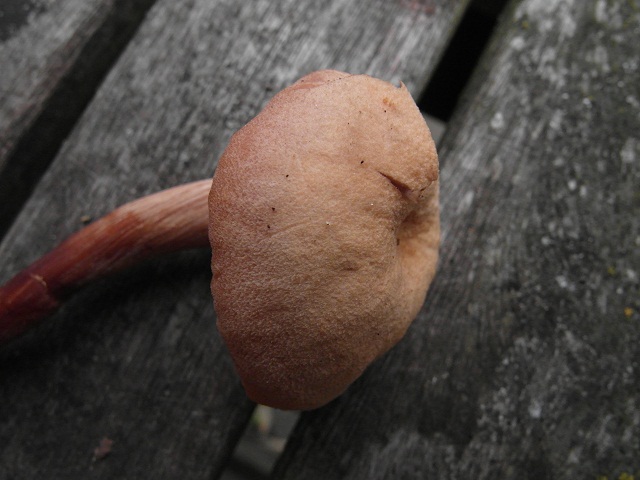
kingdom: Fungi
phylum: Basidiomycota
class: Agaricomycetes
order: Agaricales
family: Hydnangiaceae
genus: Laccaria
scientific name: Laccaria proxima
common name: stor ametysthat
